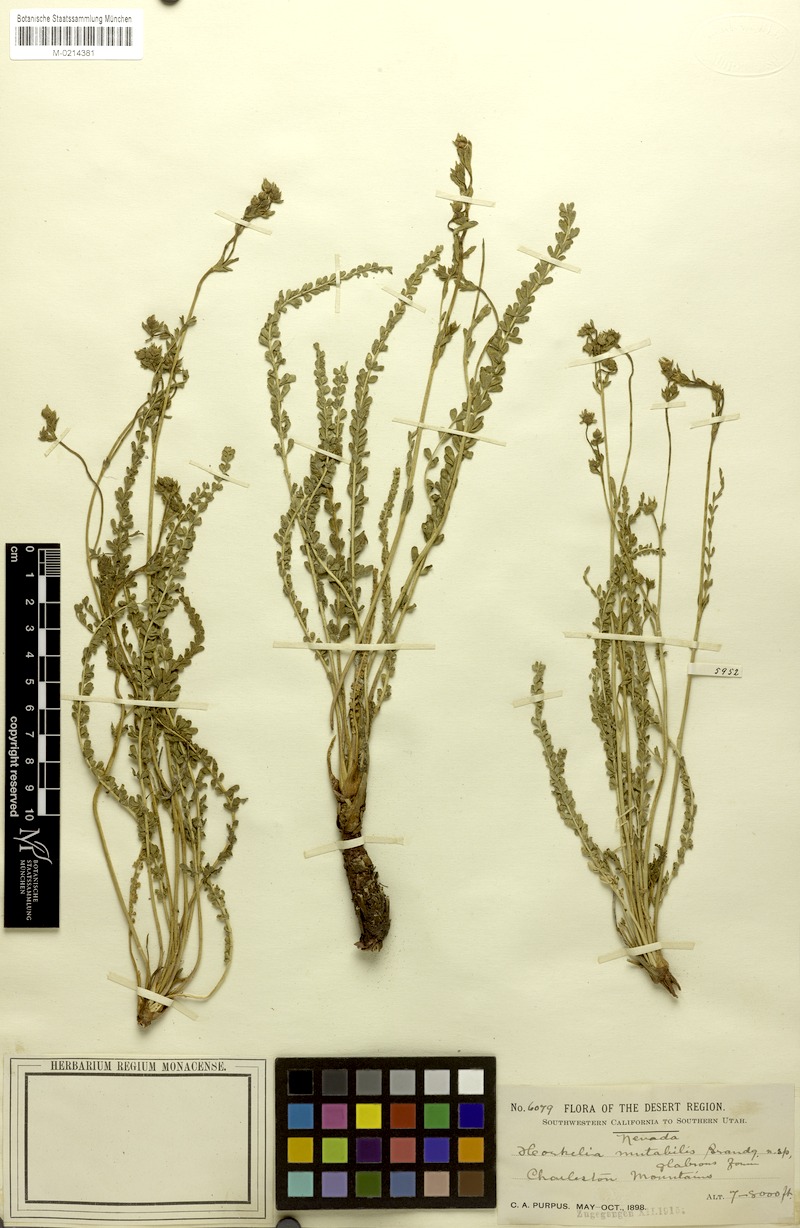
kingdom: Plantae
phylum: Tracheophyta
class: Magnoliopsida
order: Rosales
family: Rosaceae
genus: Potentilla
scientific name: Potentilla sabulosa
